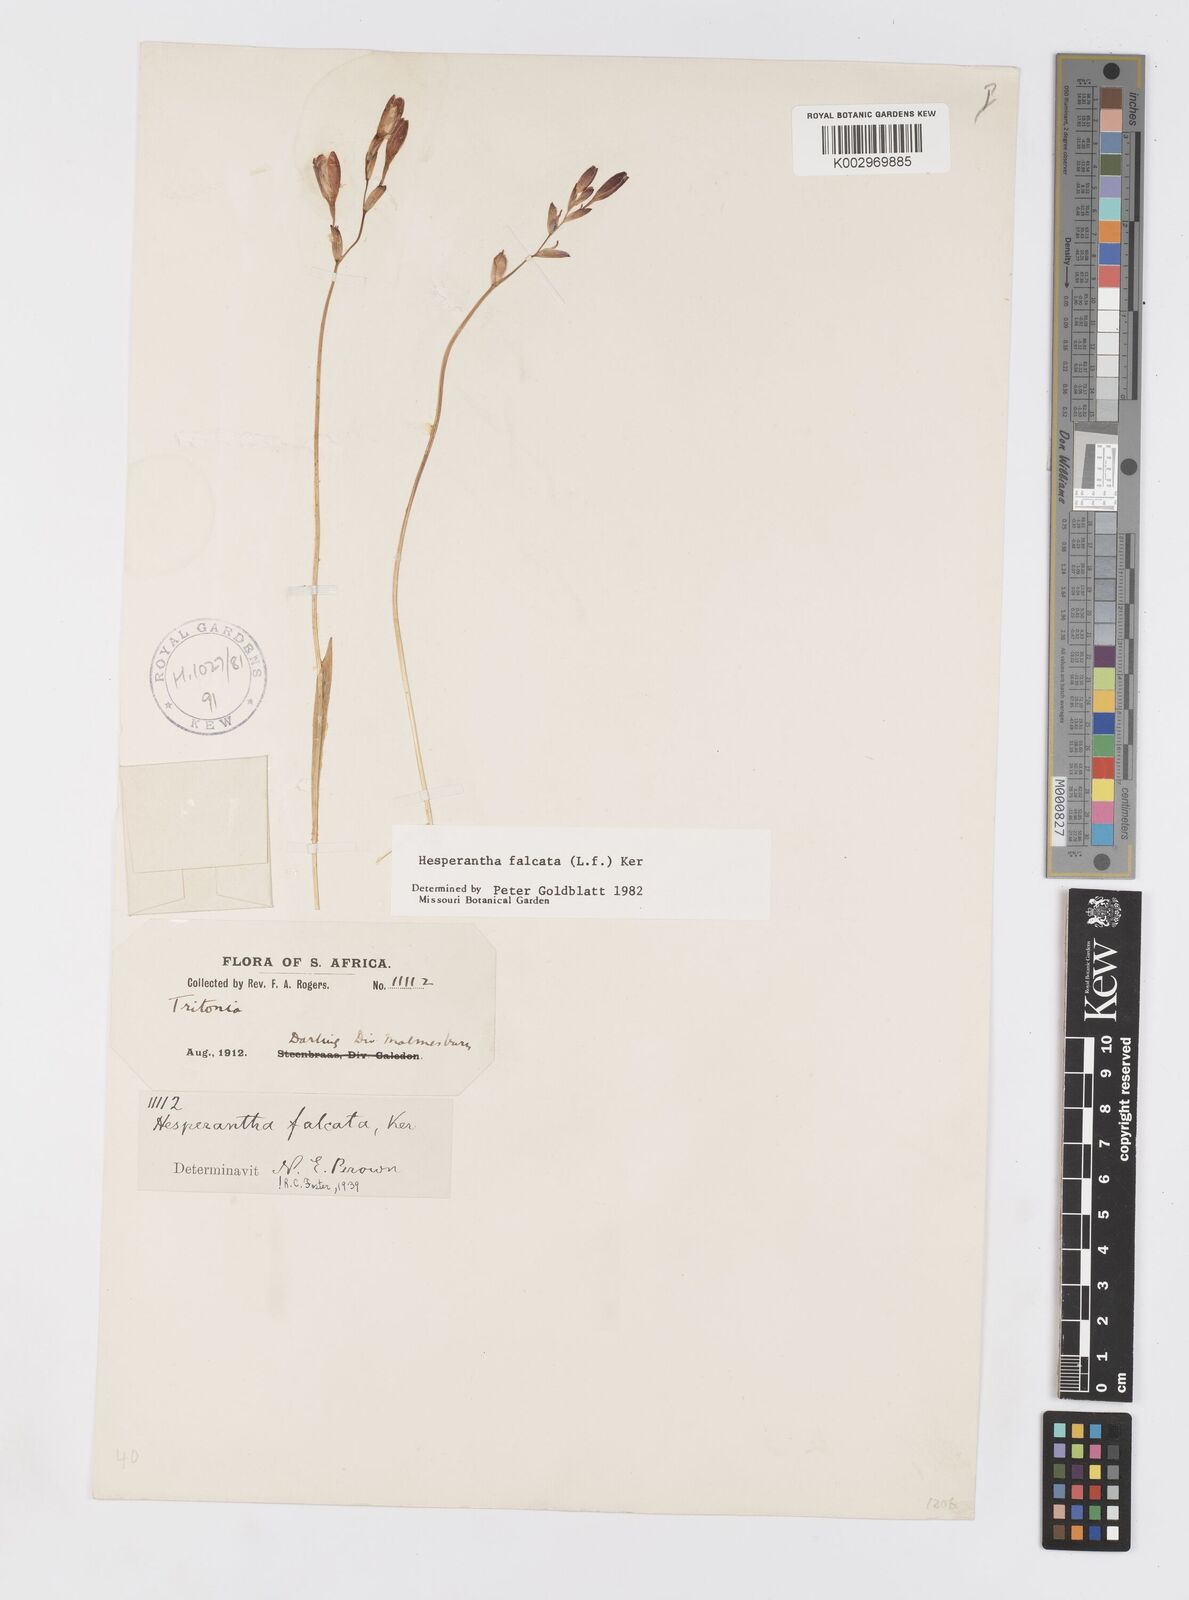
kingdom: Plantae
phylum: Tracheophyta
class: Liliopsida
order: Asparagales
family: Iridaceae
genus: Hesperantha
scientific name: Hesperantha falcata
